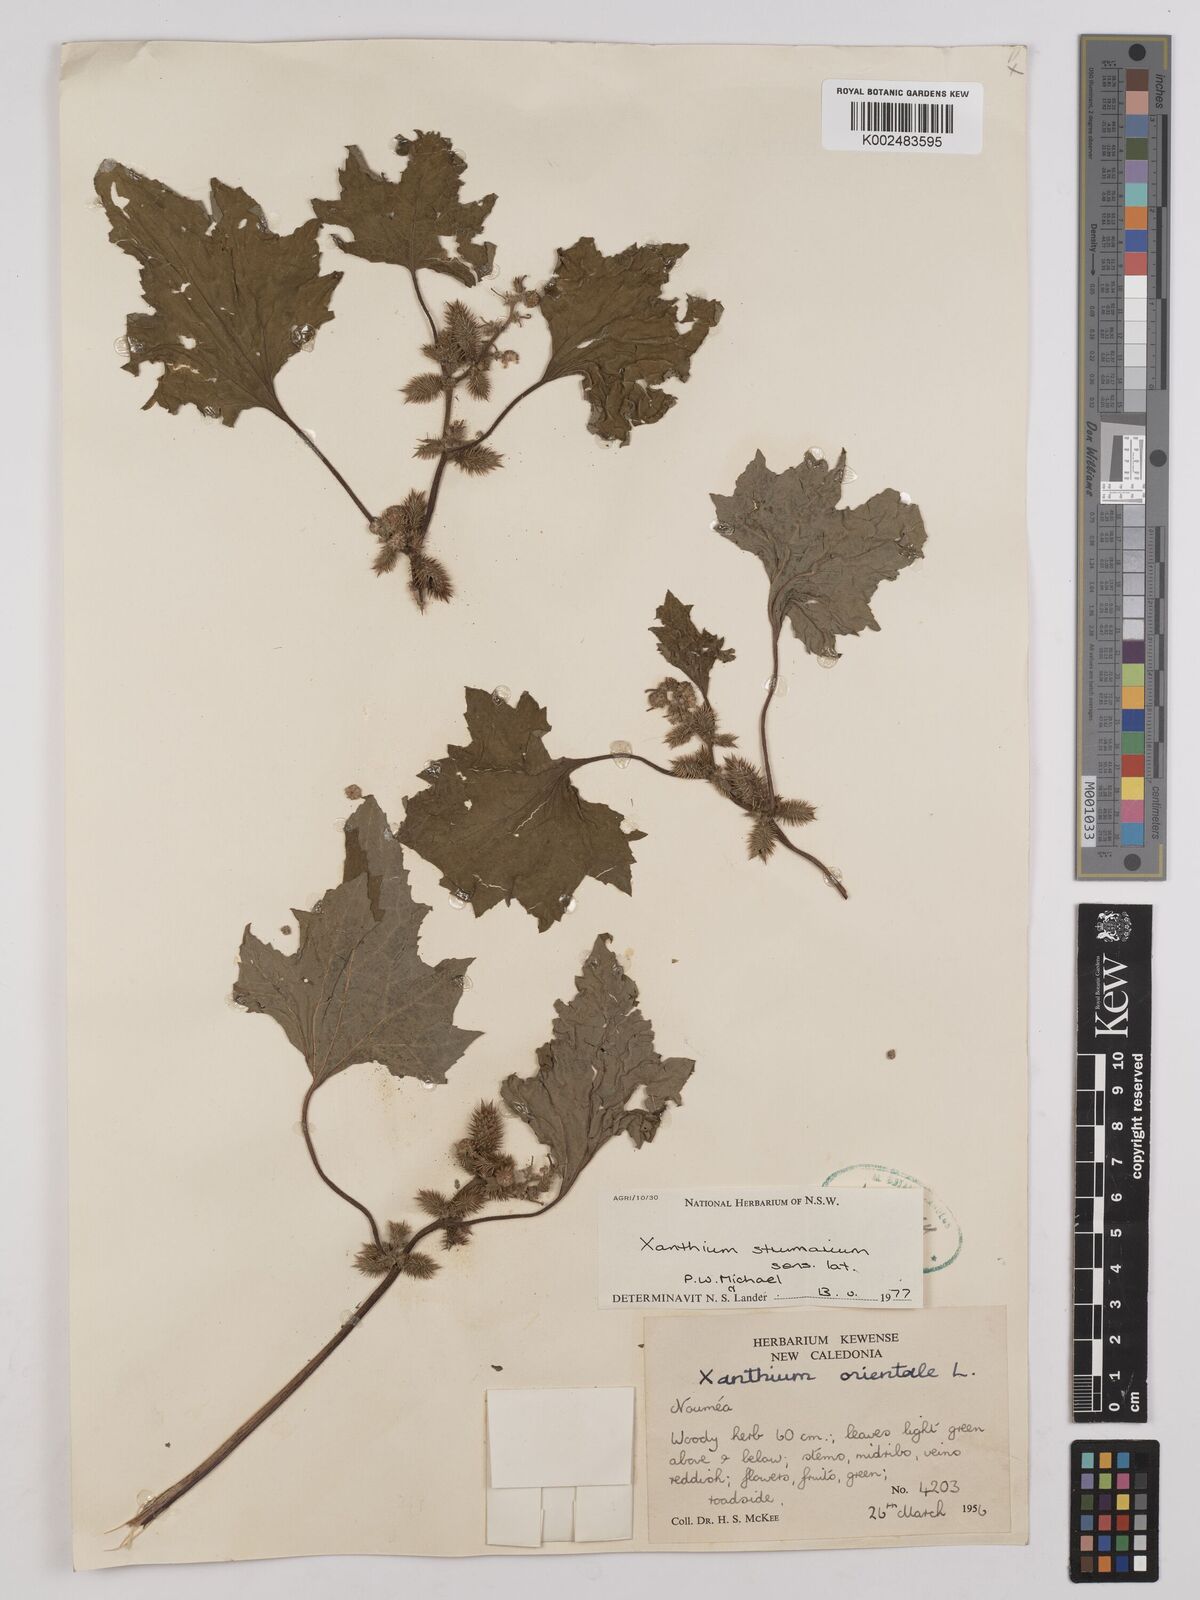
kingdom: Plantae
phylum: Tracheophyta
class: Magnoliopsida
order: Asterales
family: Asteraceae
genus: Xanthium
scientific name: Xanthium strumarium
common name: Rough cocklebur
